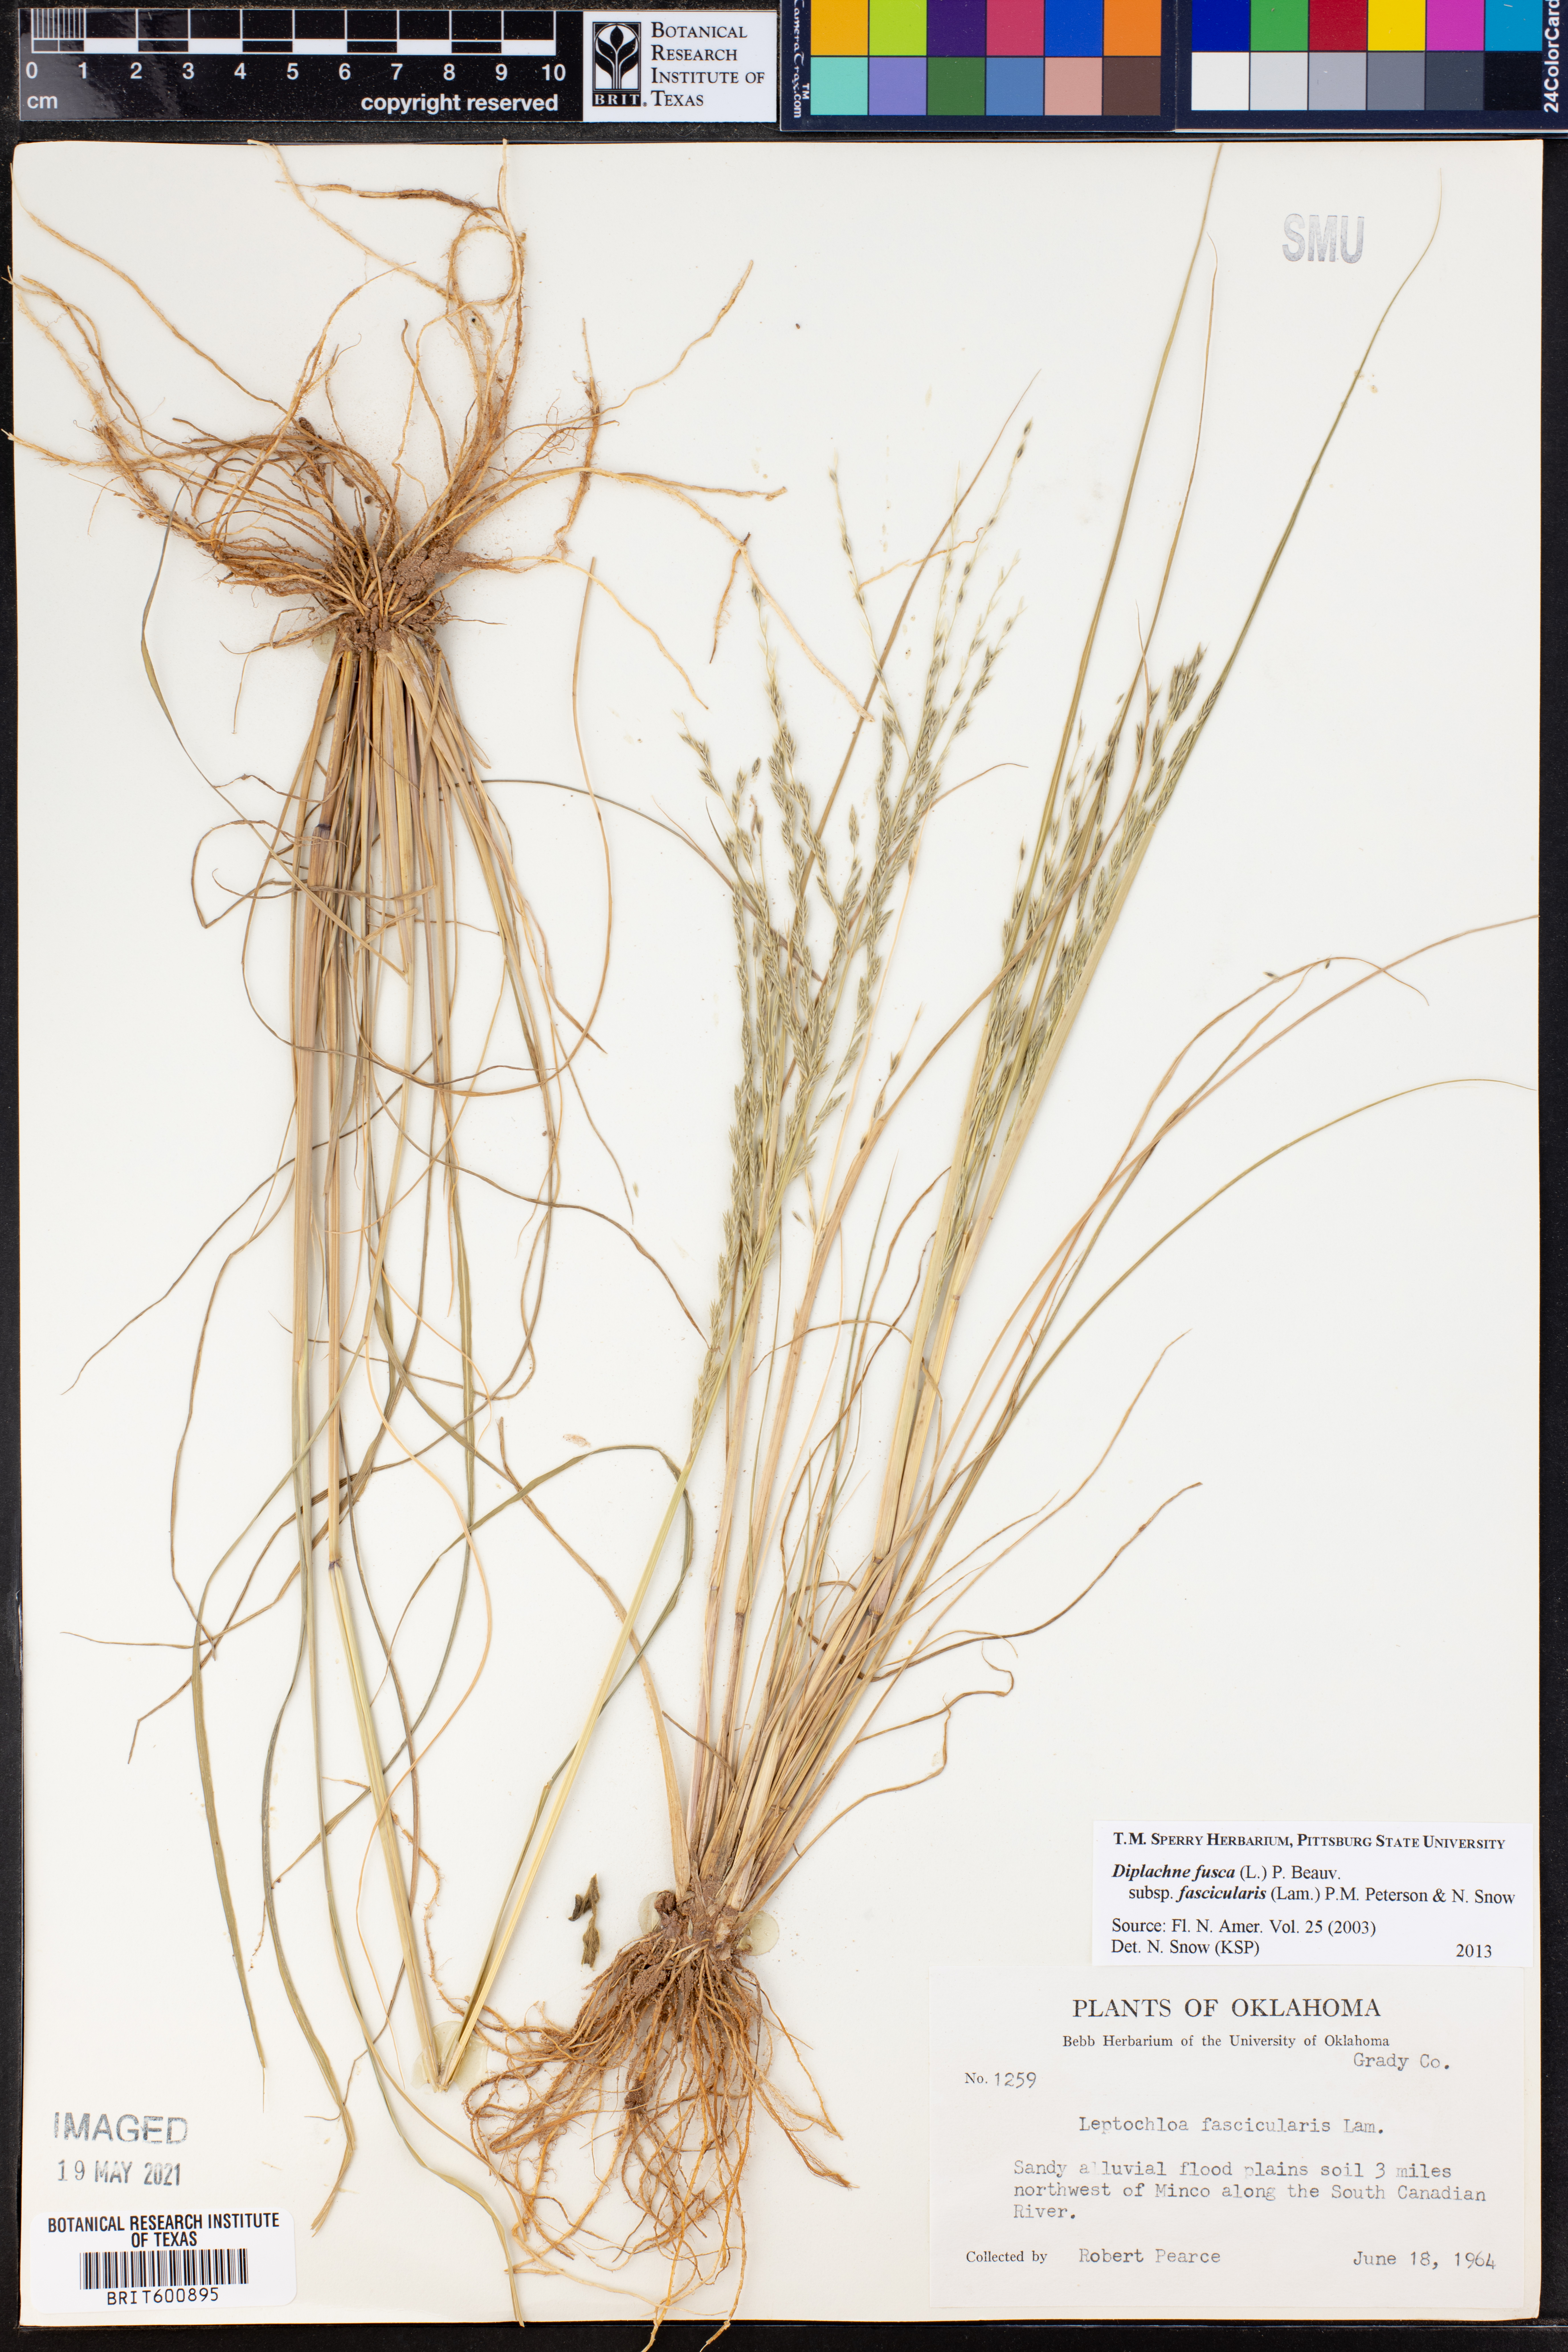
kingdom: Plantae
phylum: Tracheophyta
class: Liliopsida
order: Poales
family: Poaceae
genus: Diplachne
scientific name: Diplachne fusca
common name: Brown beetle grass
